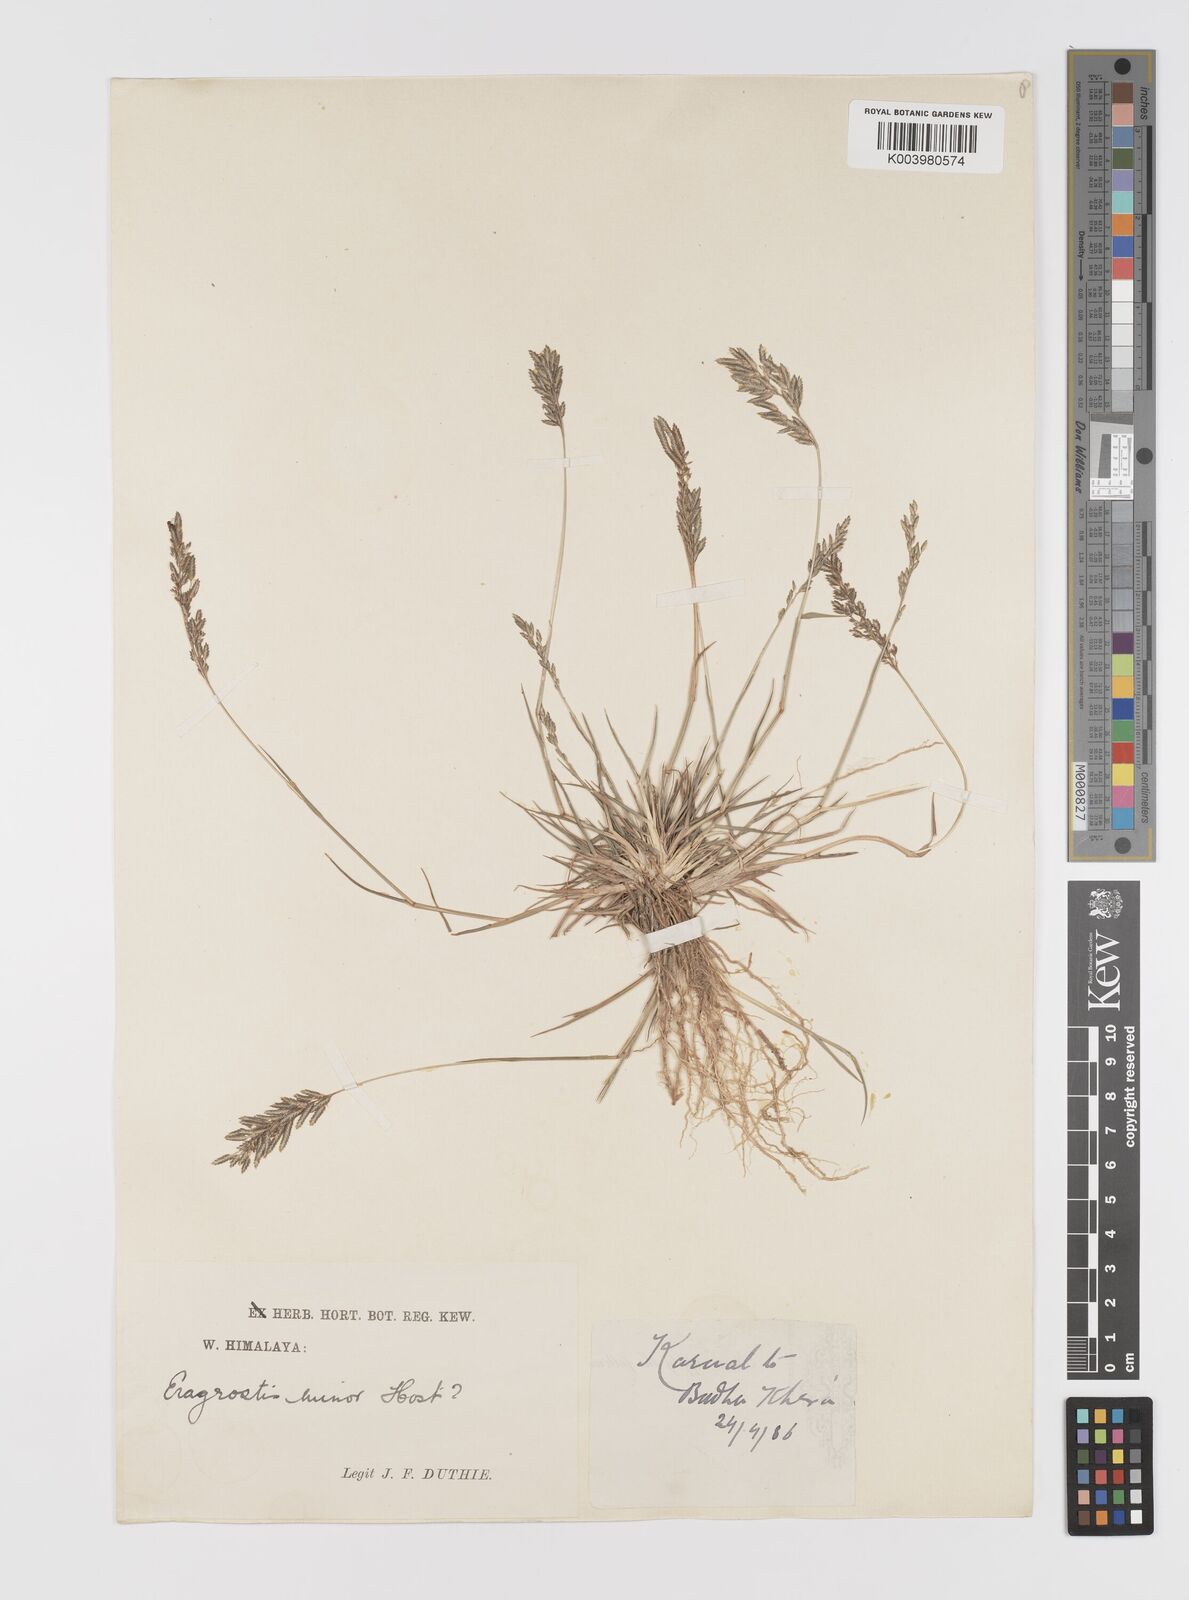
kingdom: Plantae
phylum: Tracheophyta
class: Liliopsida
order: Poales
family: Poaceae
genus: Eragrostis
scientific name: Eragrostis atrovirens
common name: Thalia lovegrass
